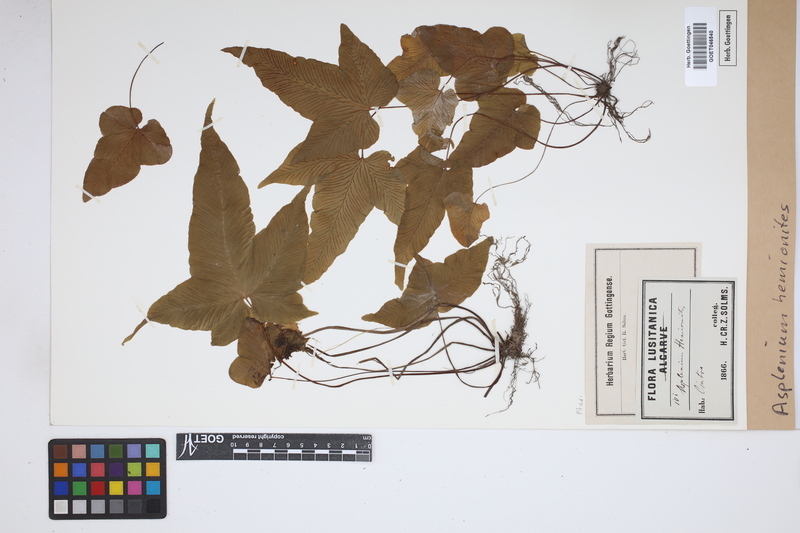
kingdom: Plantae
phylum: Tracheophyta
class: Polypodiopsida
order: Polypodiales
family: Aspleniaceae
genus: Asplenium
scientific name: Asplenium hemionitis
